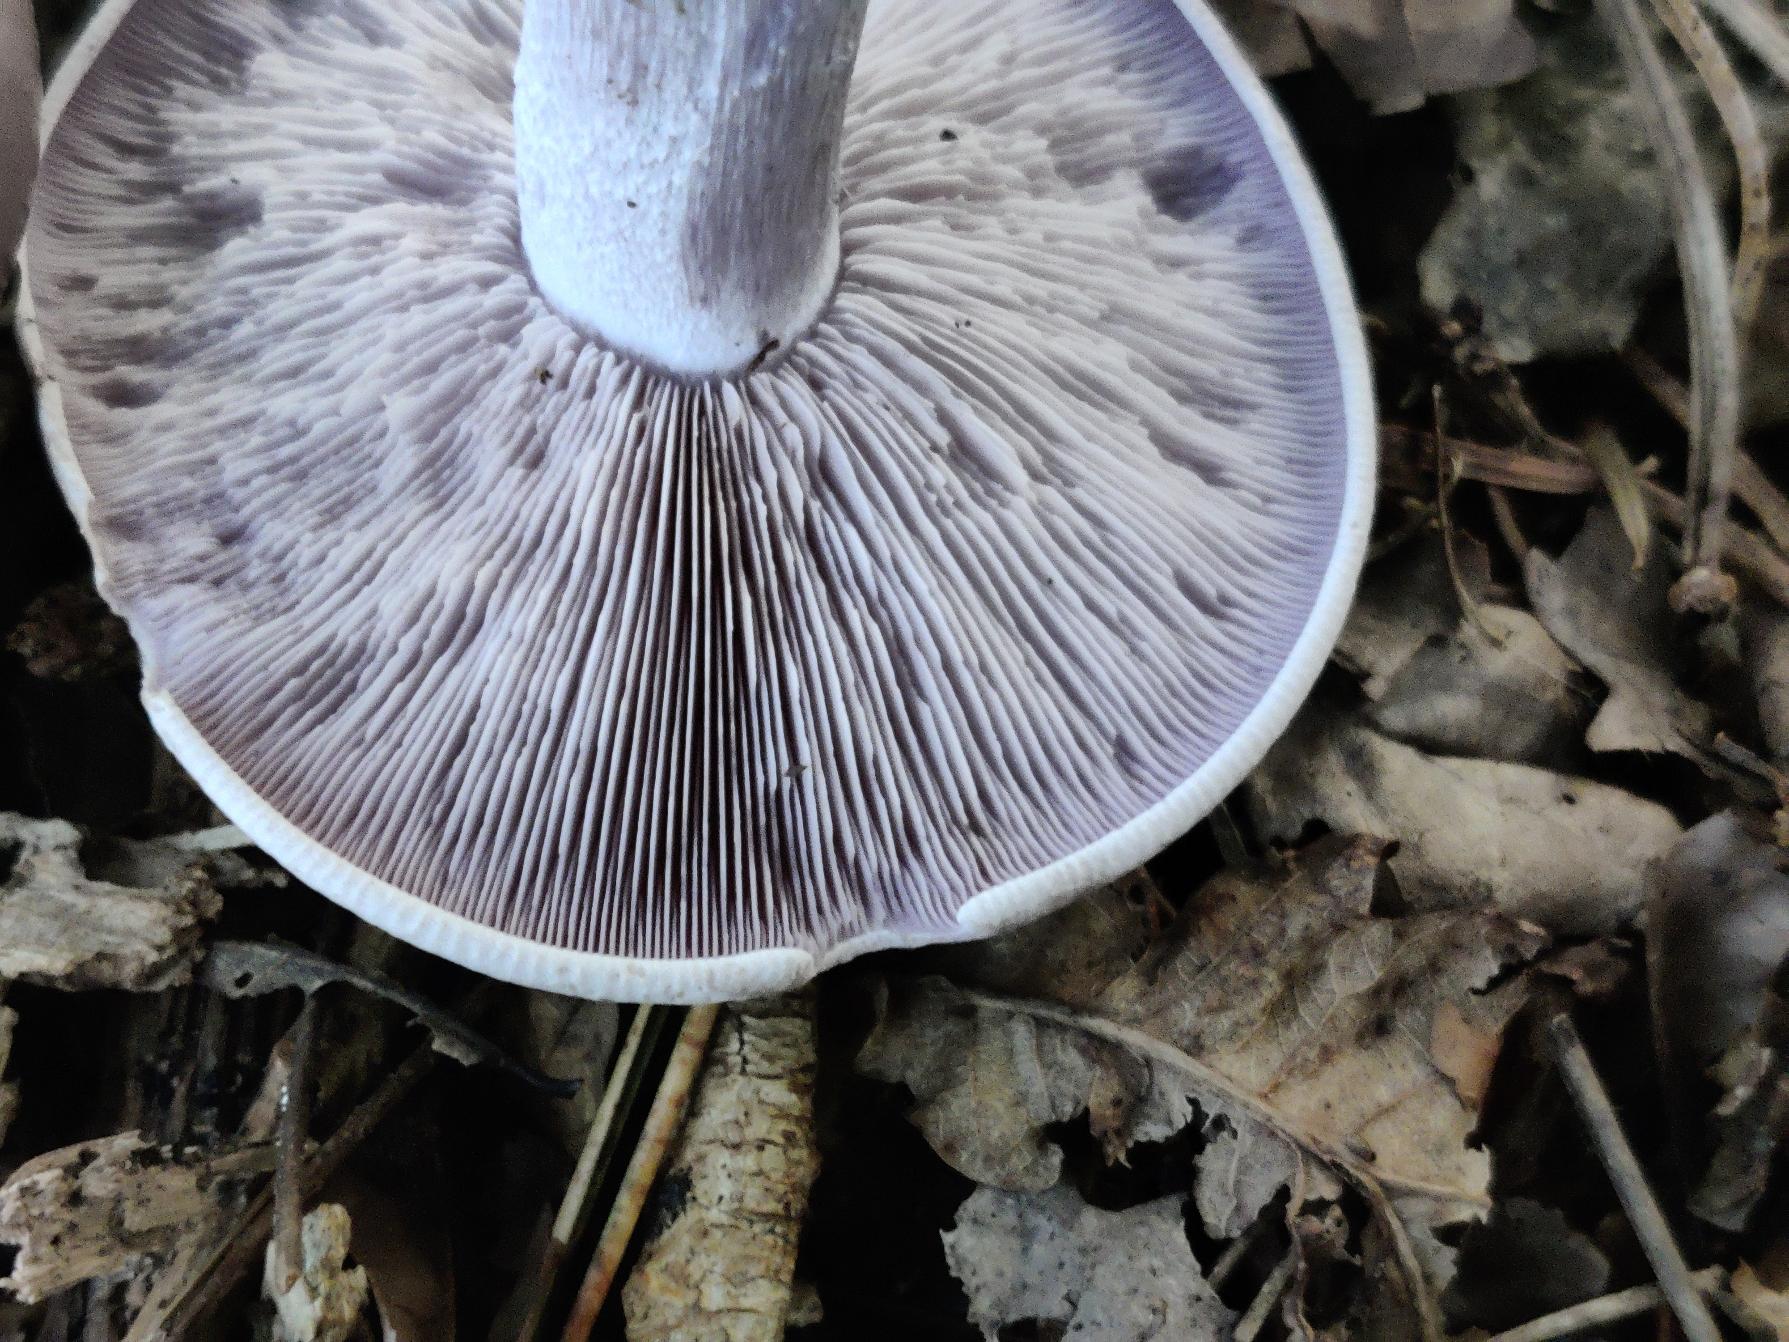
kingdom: Fungi
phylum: Basidiomycota
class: Agaricomycetes
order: Agaricales
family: Tricholomataceae
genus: Lepista
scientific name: Lepista nuda
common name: Violet hekseringshat
